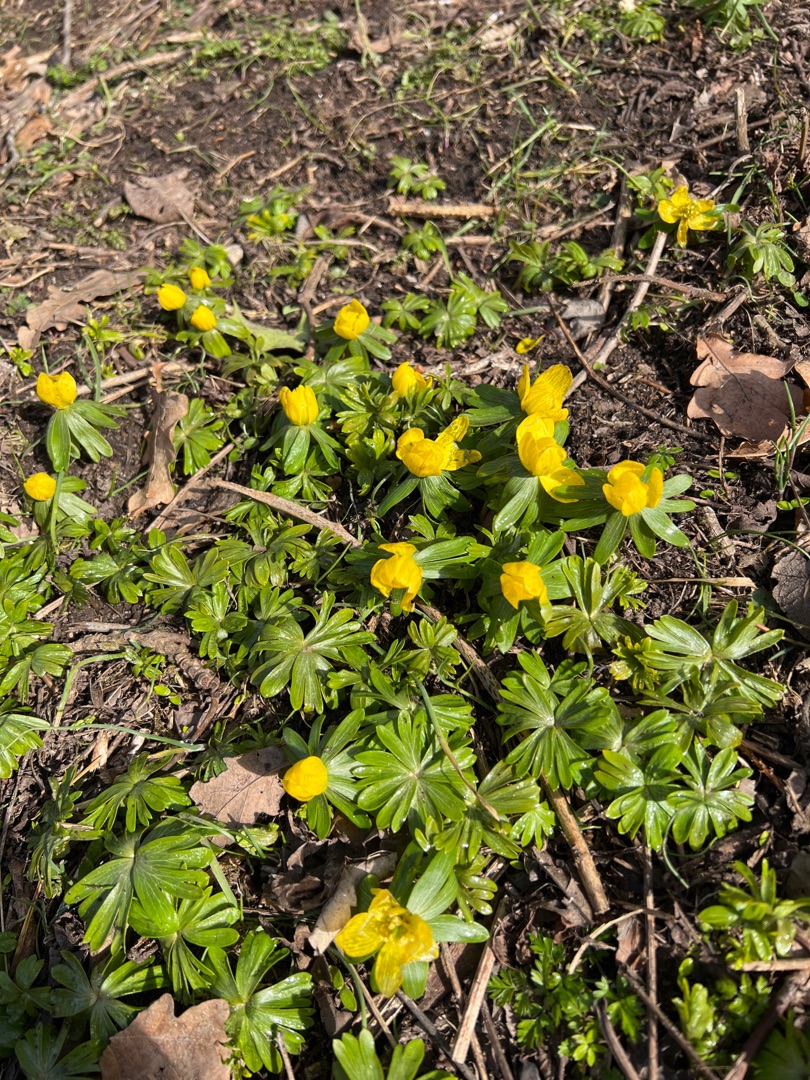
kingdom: Plantae
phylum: Tracheophyta
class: Magnoliopsida
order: Ranunculales
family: Ranunculaceae
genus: Eranthis
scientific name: Eranthis hyemalis
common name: Erantis
